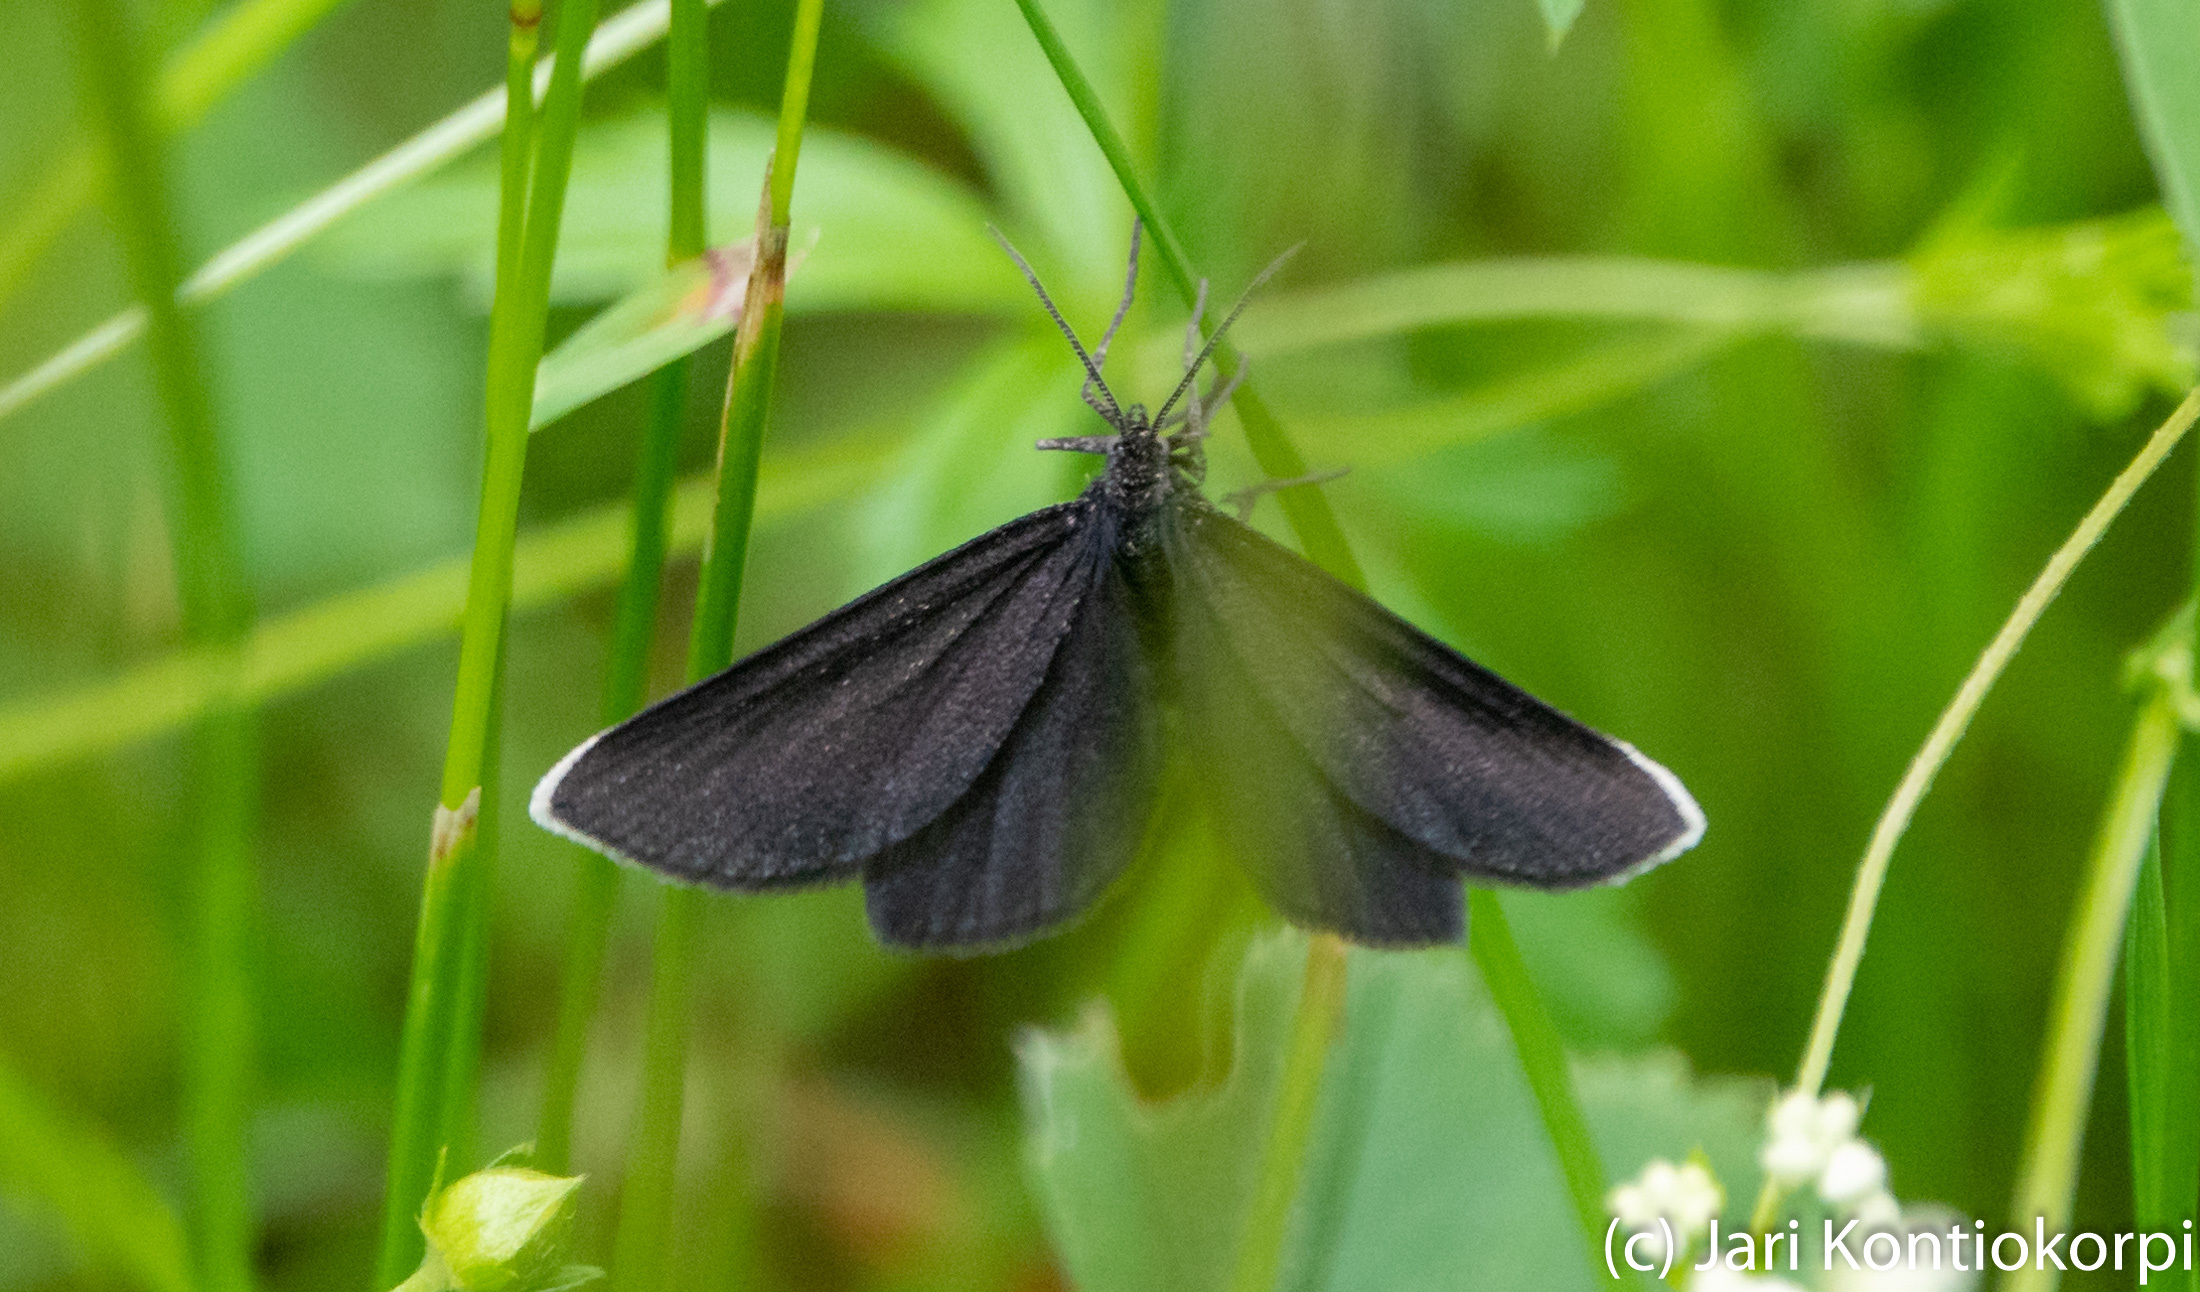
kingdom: Animalia
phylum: Arthropoda
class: Insecta
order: Lepidoptera
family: Geometridae
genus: Odezia
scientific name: Odezia atrata
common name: Chimney sweeper
